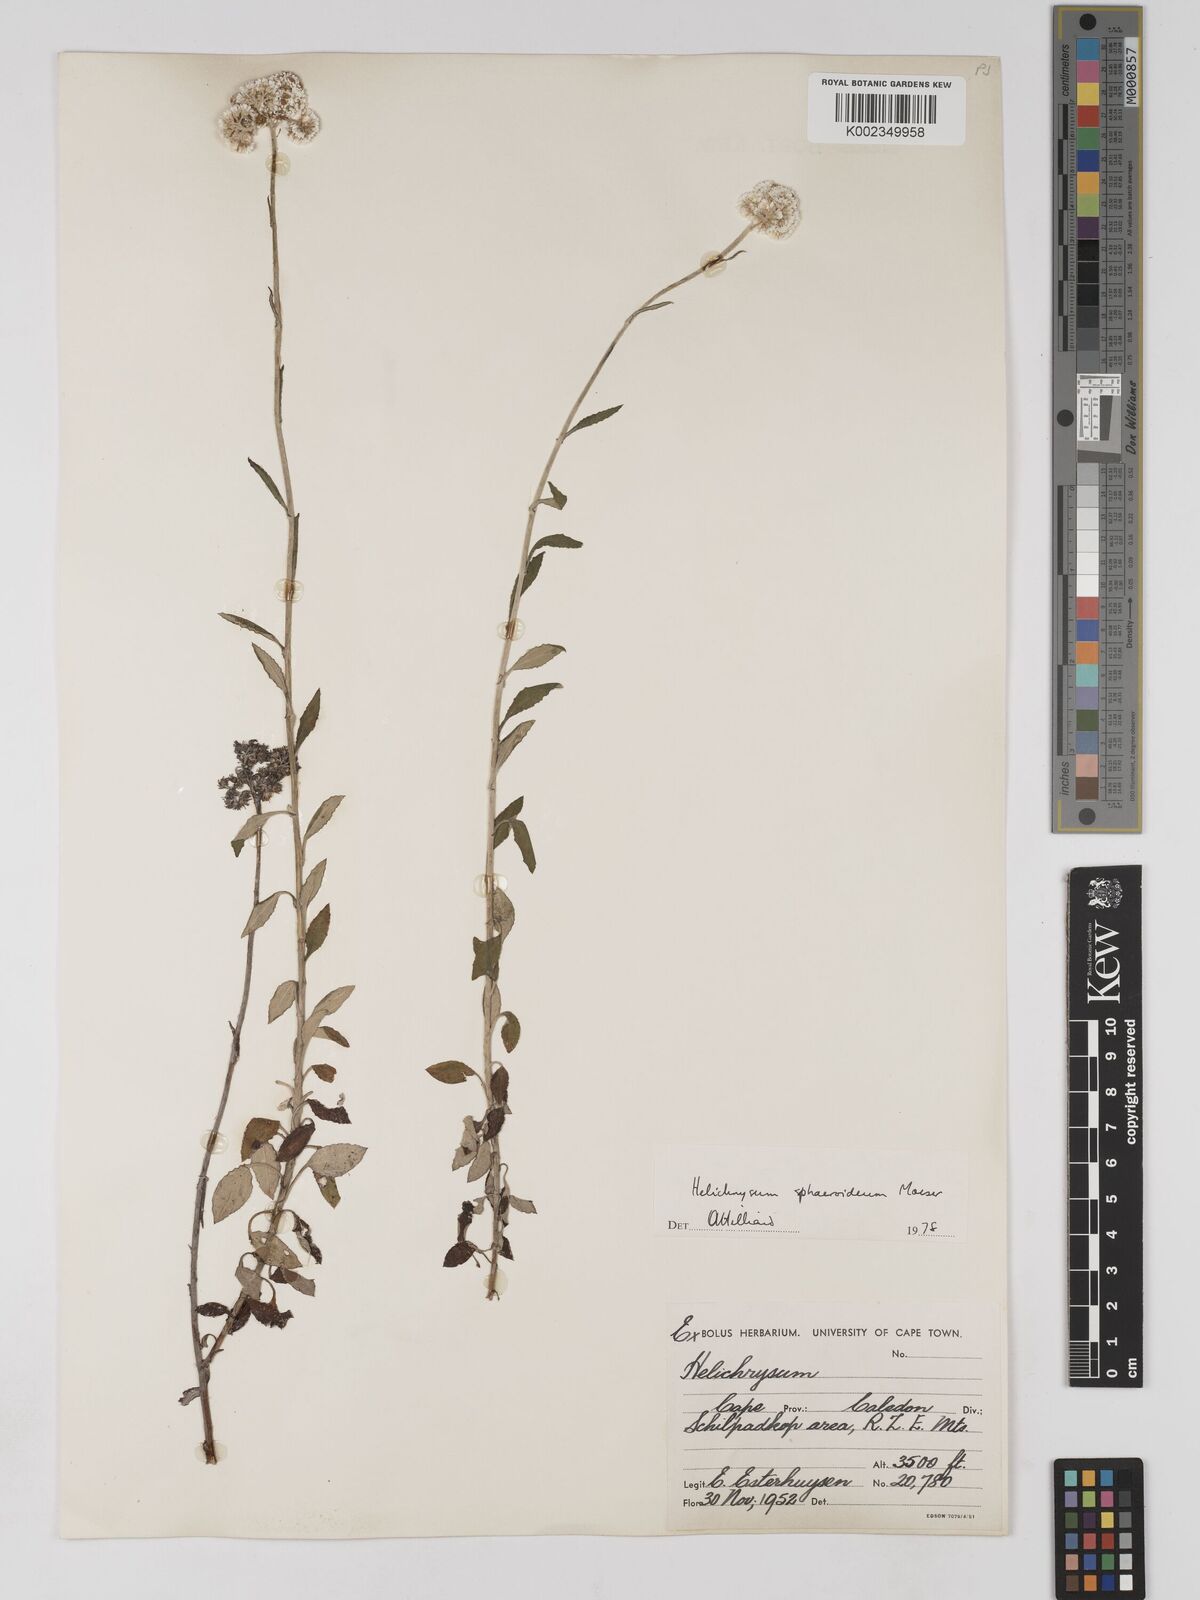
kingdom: Plantae
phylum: Tracheophyta
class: Magnoliopsida
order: Asterales
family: Asteraceae
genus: Helichrysum
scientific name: Helichrysum sphaeroideum
